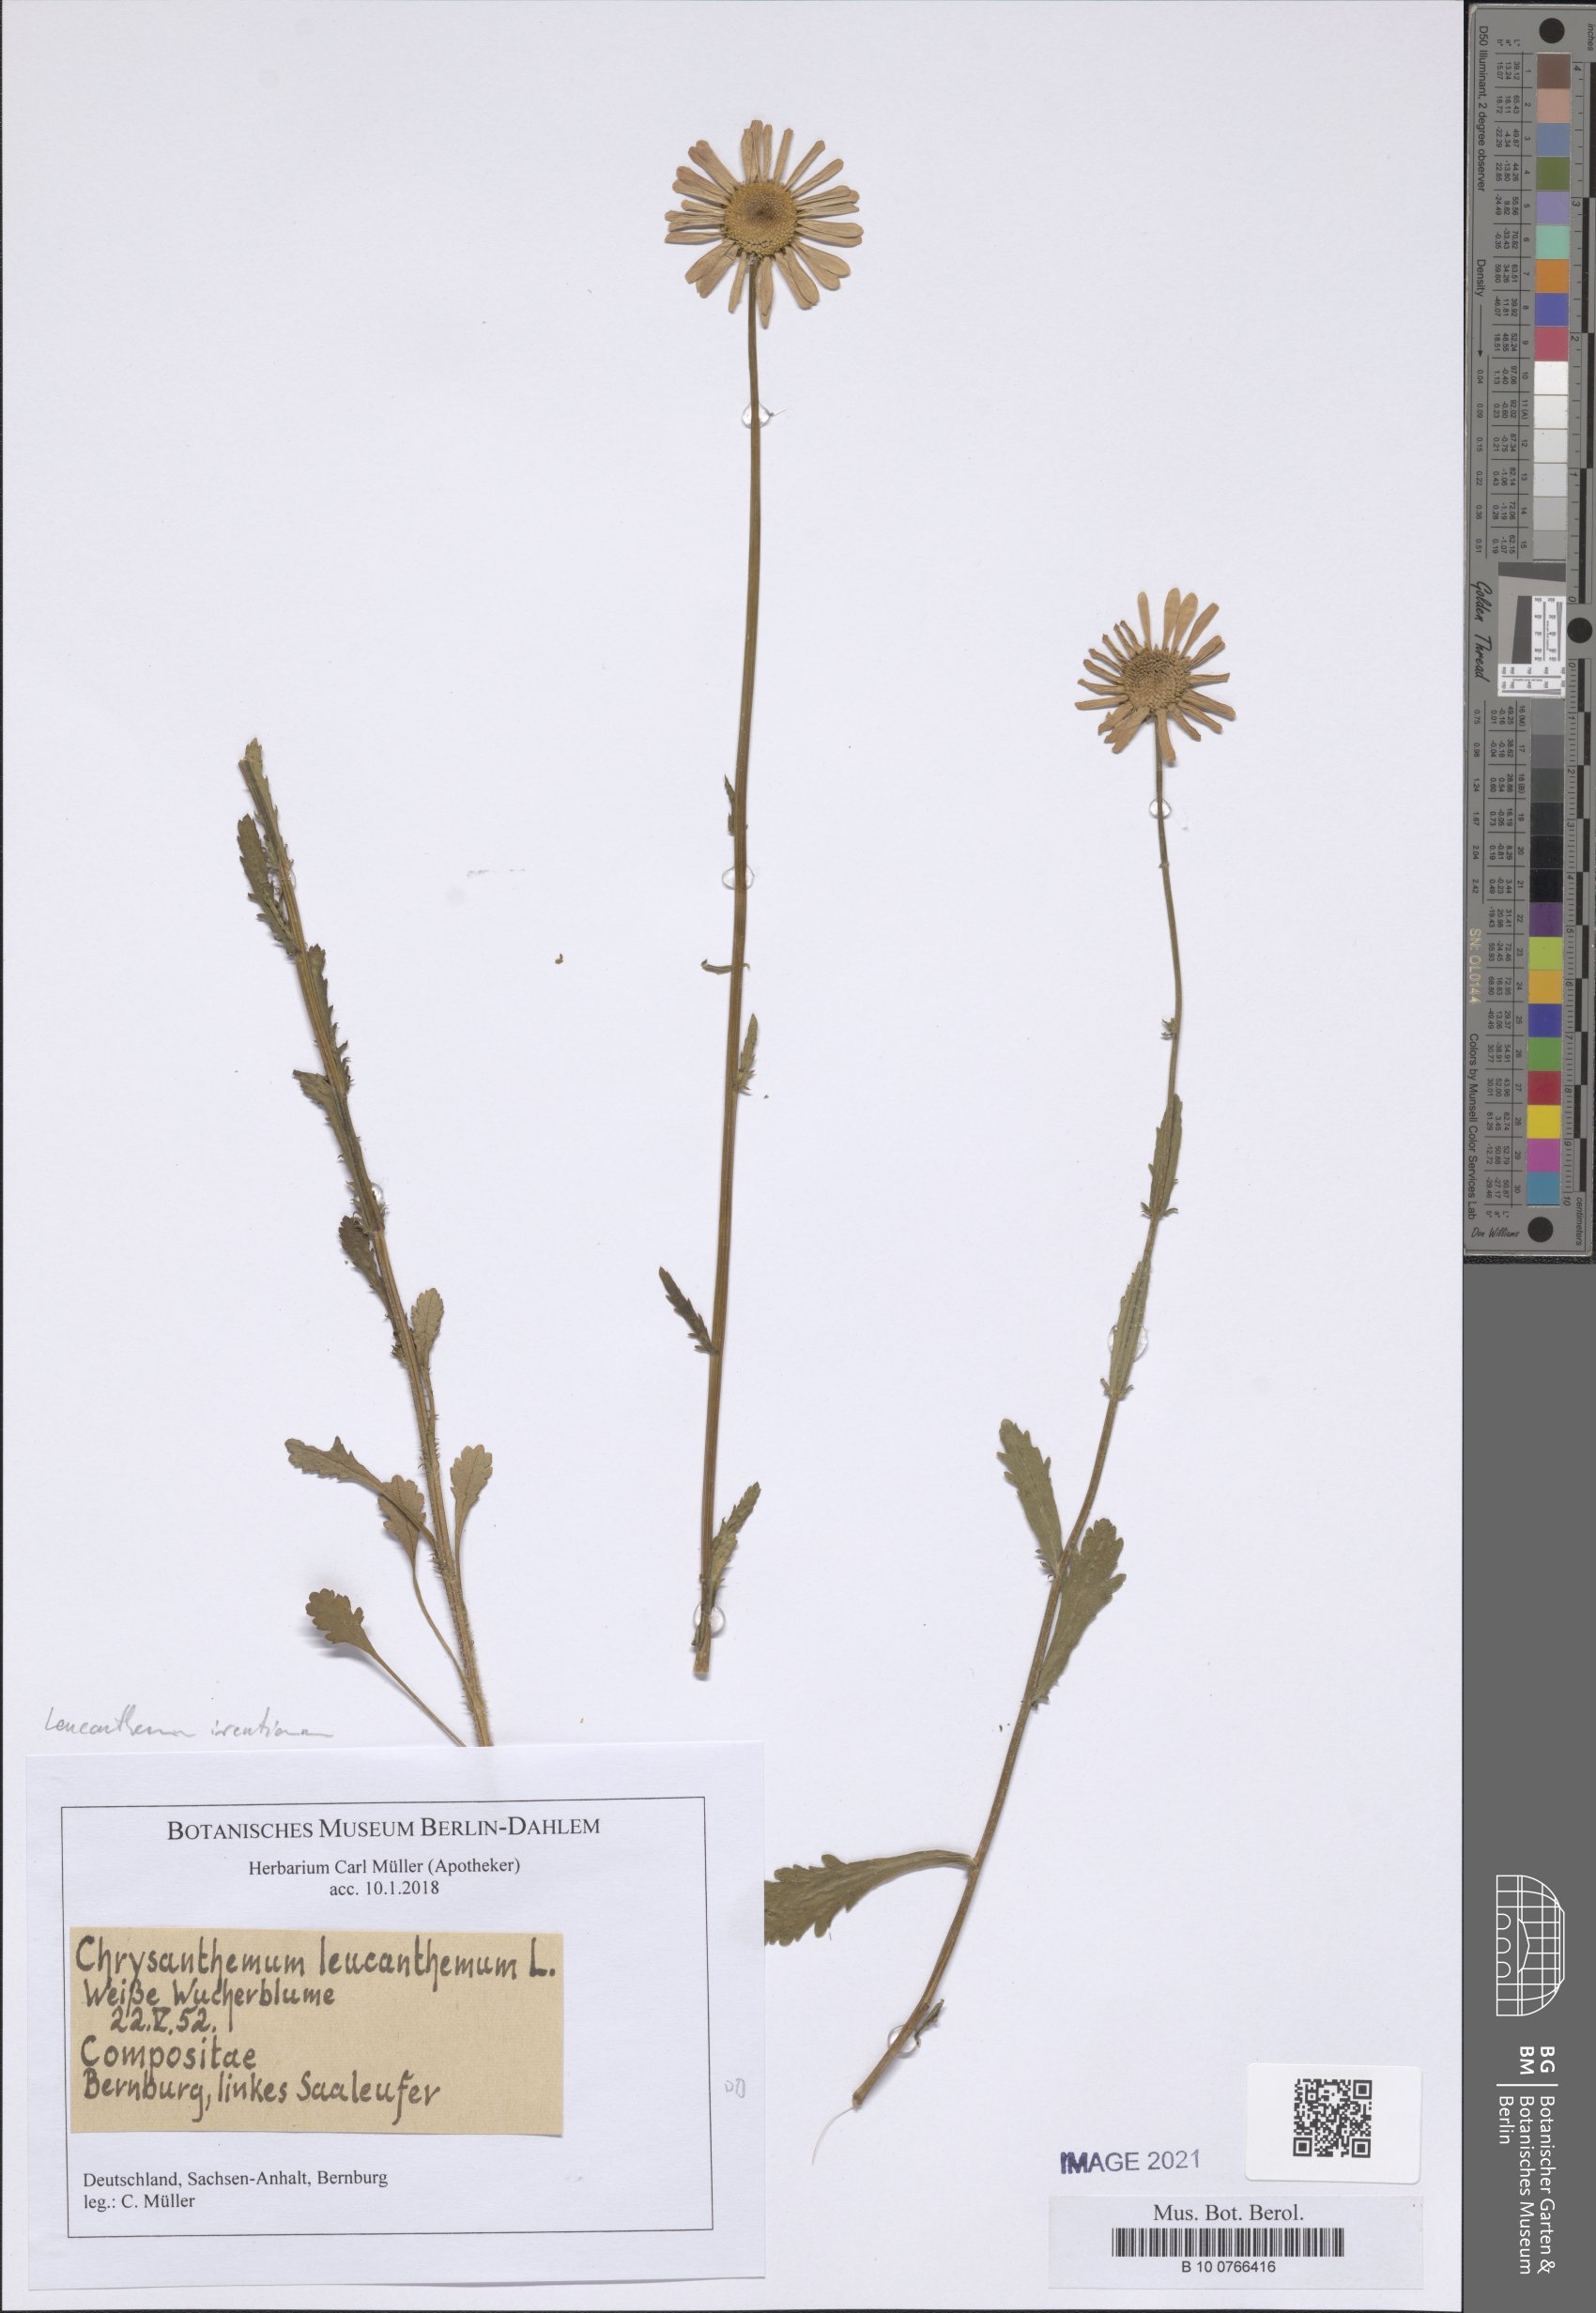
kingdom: Plantae
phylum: Tracheophyta
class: Magnoliopsida
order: Asterales
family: Asteraceae
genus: Leucanthemum
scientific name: Leucanthemum ircutianum
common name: Daisy
